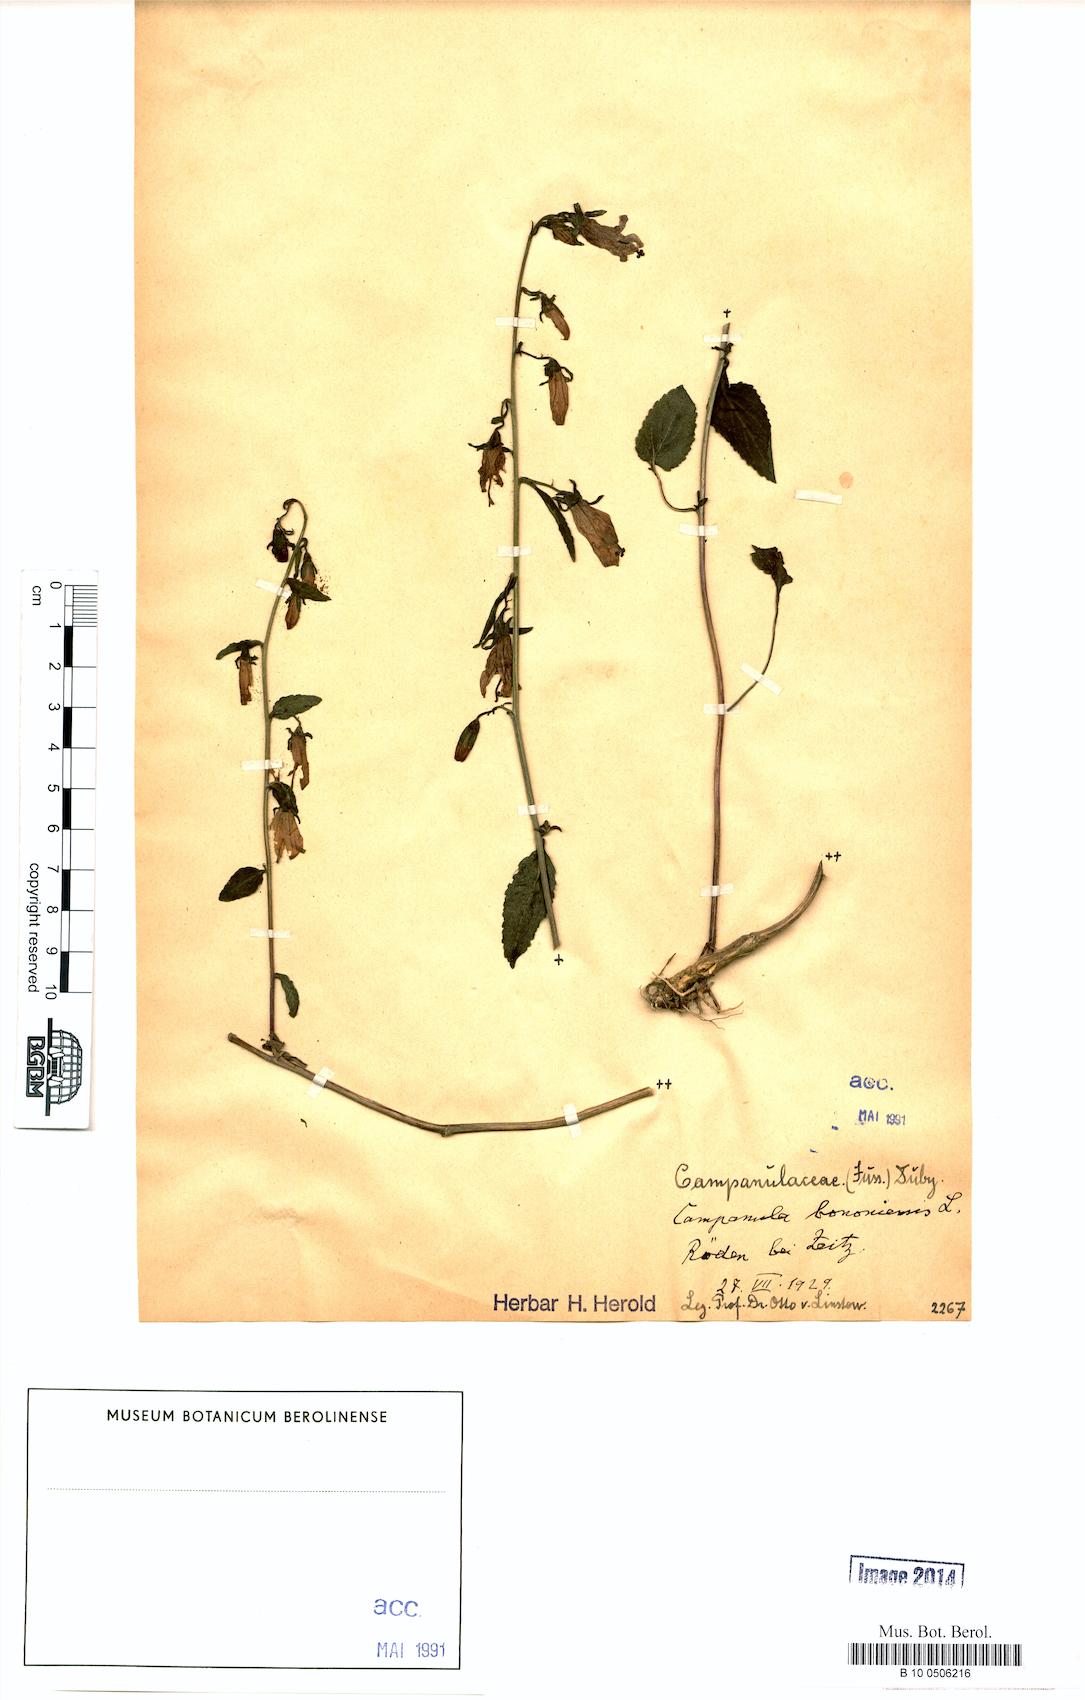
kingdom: Plantae
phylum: Tracheophyta
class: Magnoliopsida
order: Asterales
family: Campanulaceae
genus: Campanula
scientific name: Campanula bononiensis
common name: Pale bellflower
